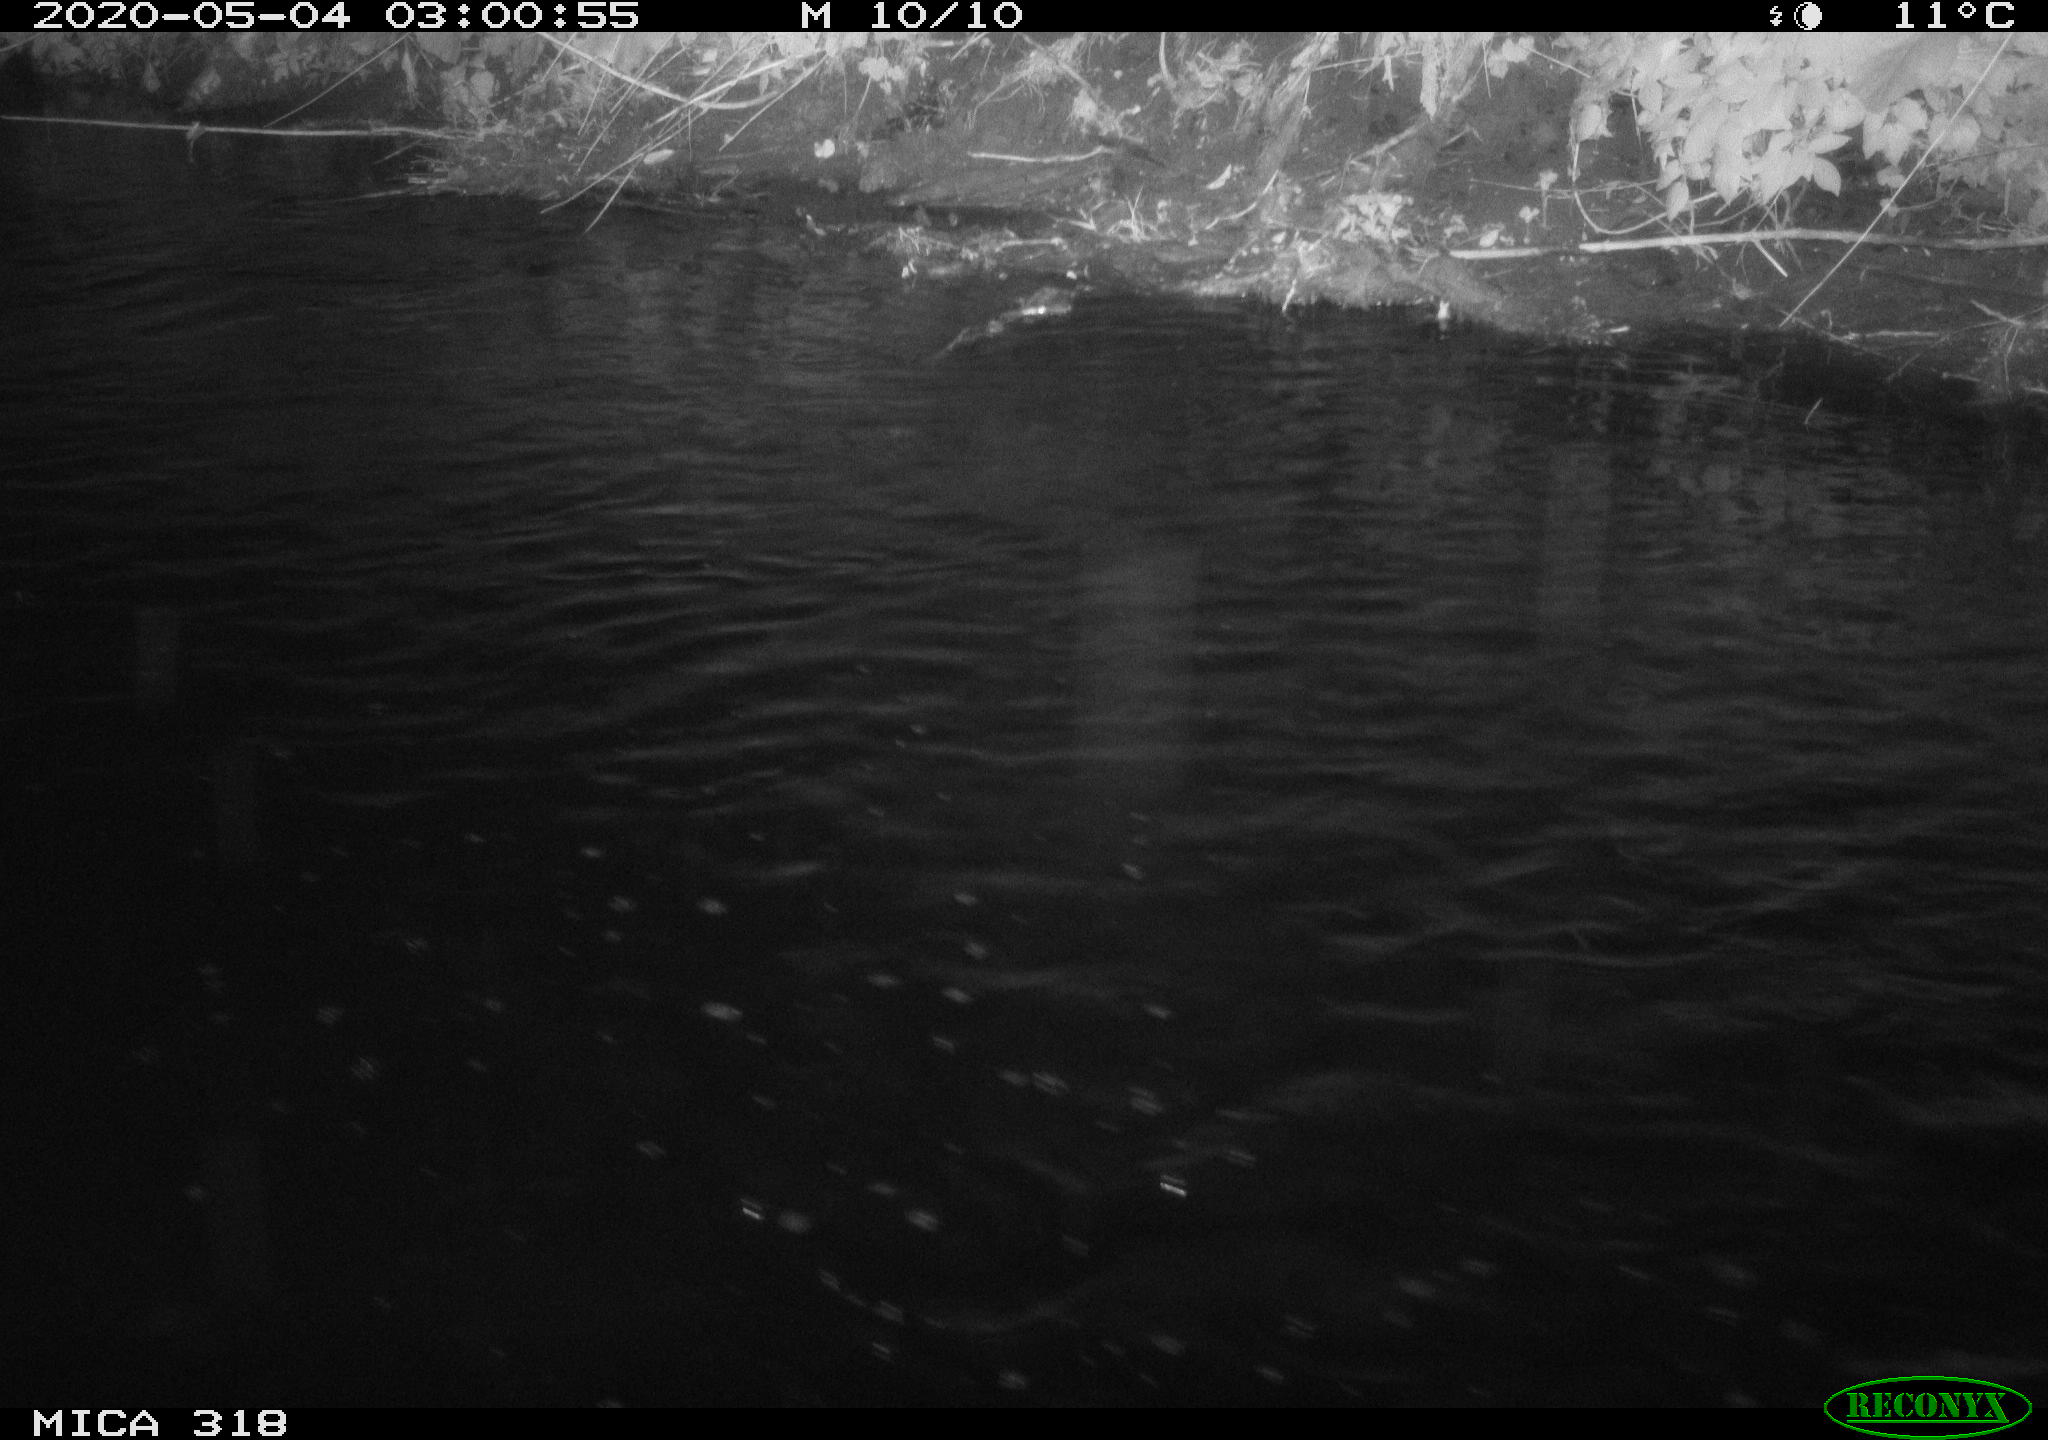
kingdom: Animalia
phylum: Chordata
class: Aves
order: Pelecaniformes
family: Ardeidae
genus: Ardea
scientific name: Ardea cinerea
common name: Grey heron
